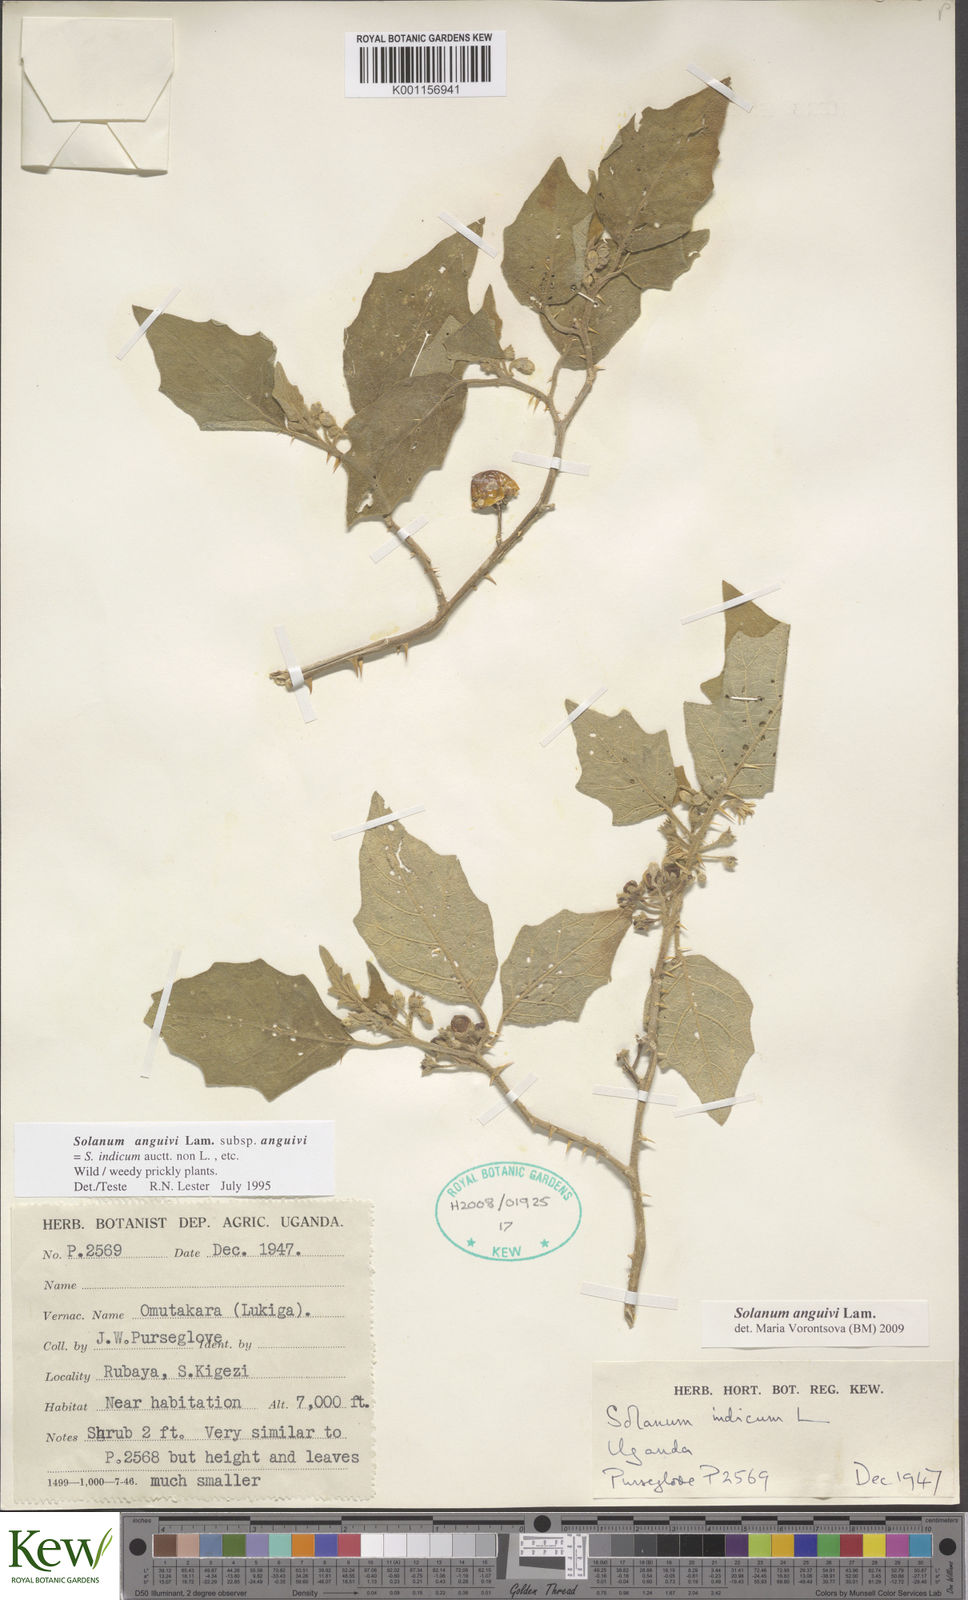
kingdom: Plantae
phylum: Tracheophyta
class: Magnoliopsida
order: Solanales
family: Solanaceae
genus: Solanum
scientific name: Solanum anguivi
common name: Forest bitterberry
